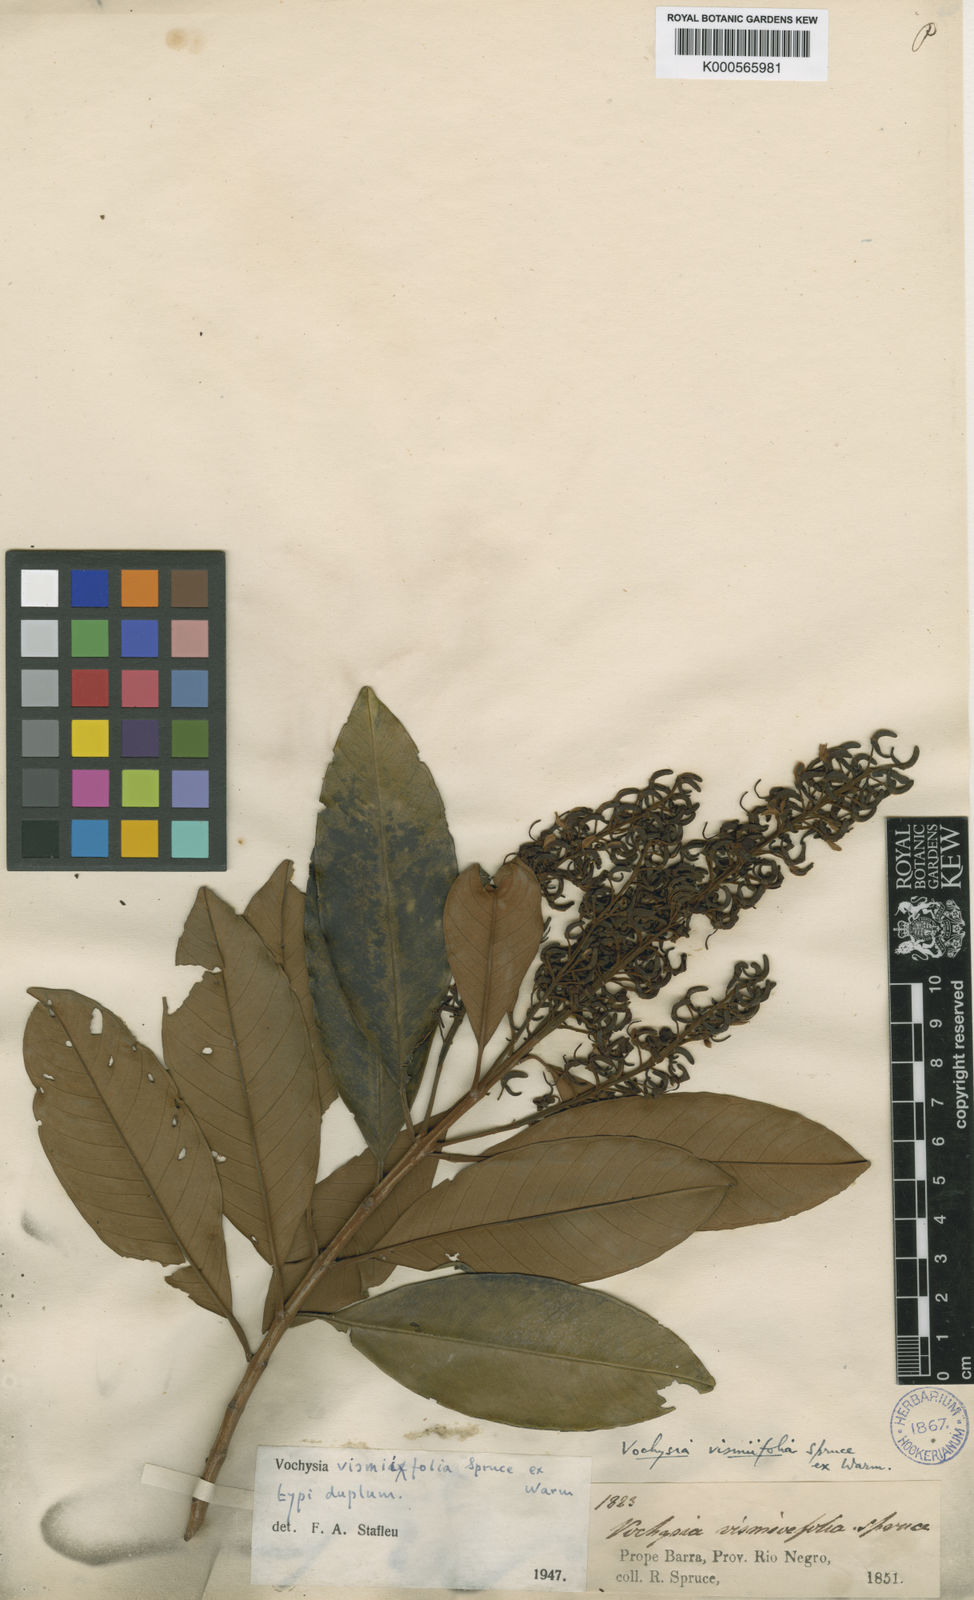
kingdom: Plantae
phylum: Tracheophyta
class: Magnoliopsida
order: Myrtales
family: Vochysiaceae
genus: Vochysia
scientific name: Vochysia vismiifolia
